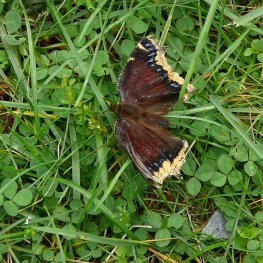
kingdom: Animalia
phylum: Arthropoda
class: Insecta
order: Lepidoptera
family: Nymphalidae
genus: Nymphalis
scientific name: Nymphalis antiopa
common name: Mourning Cloak
